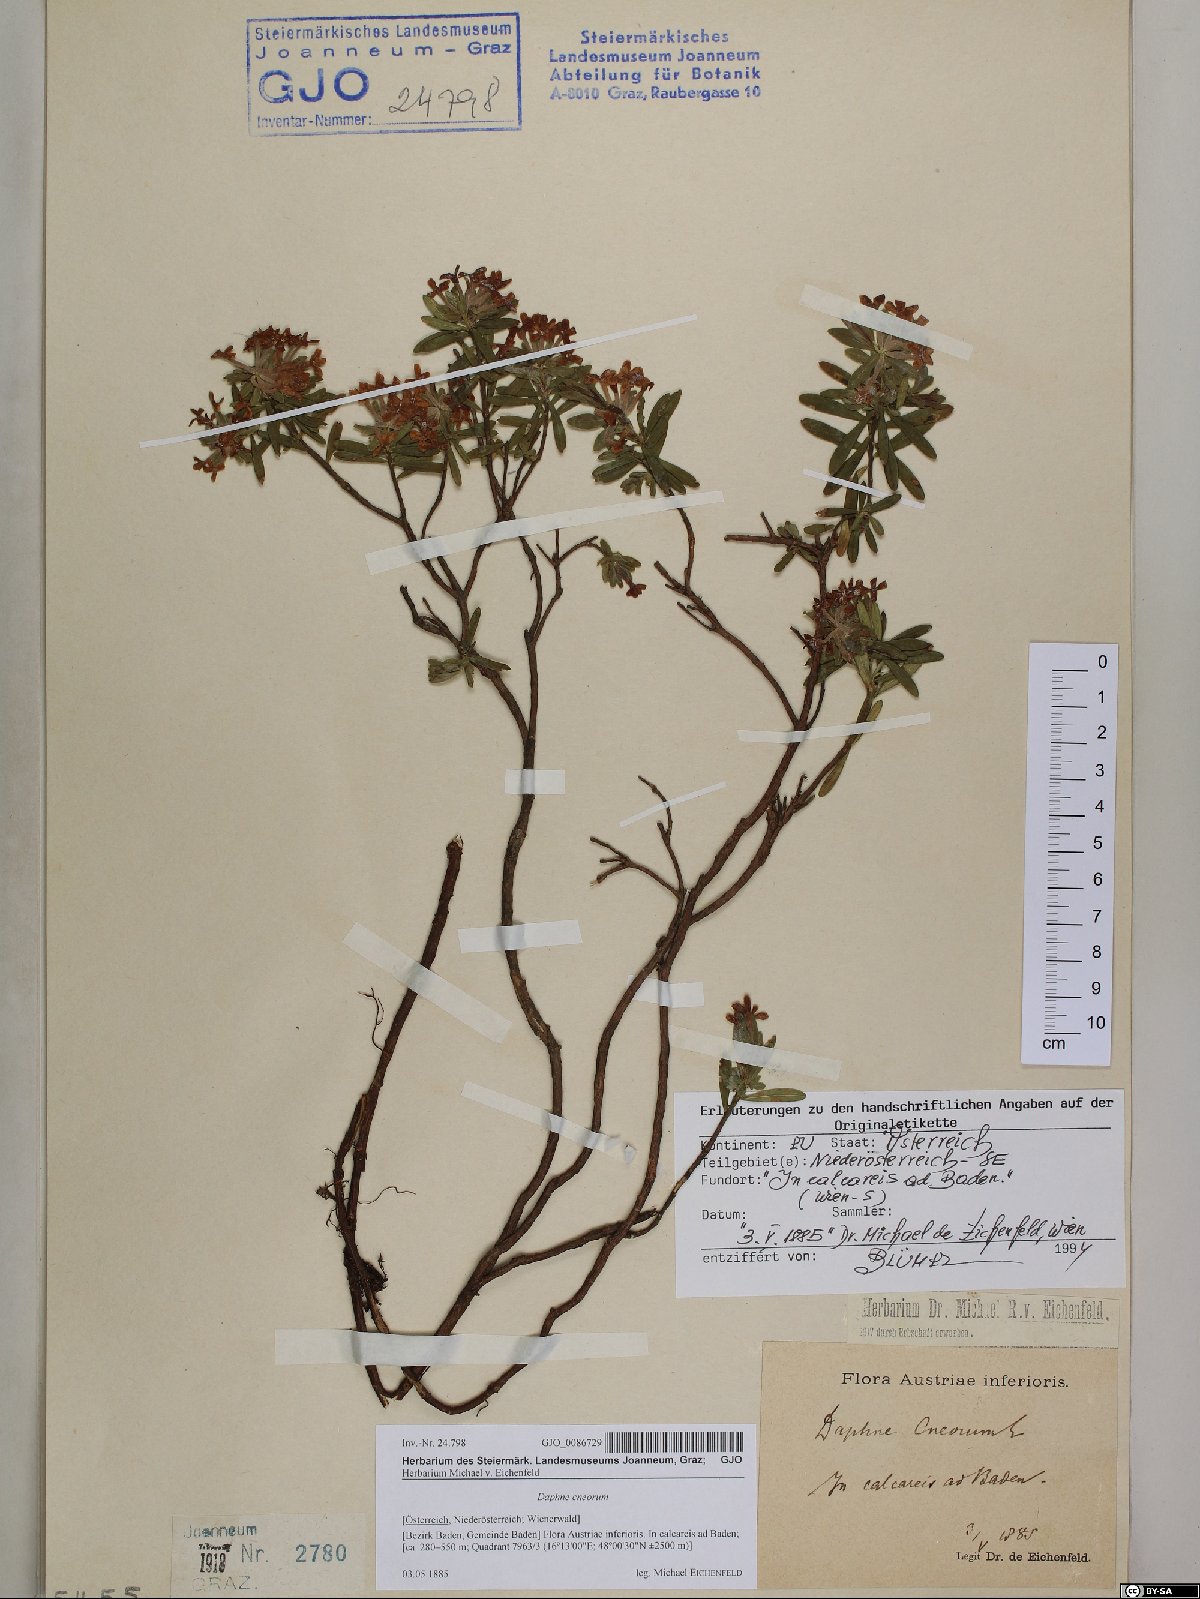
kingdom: Plantae
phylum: Tracheophyta
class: Magnoliopsida
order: Malvales
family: Thymelaeaceae
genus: Daphne
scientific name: Daphne cneorum
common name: Garland-flower
